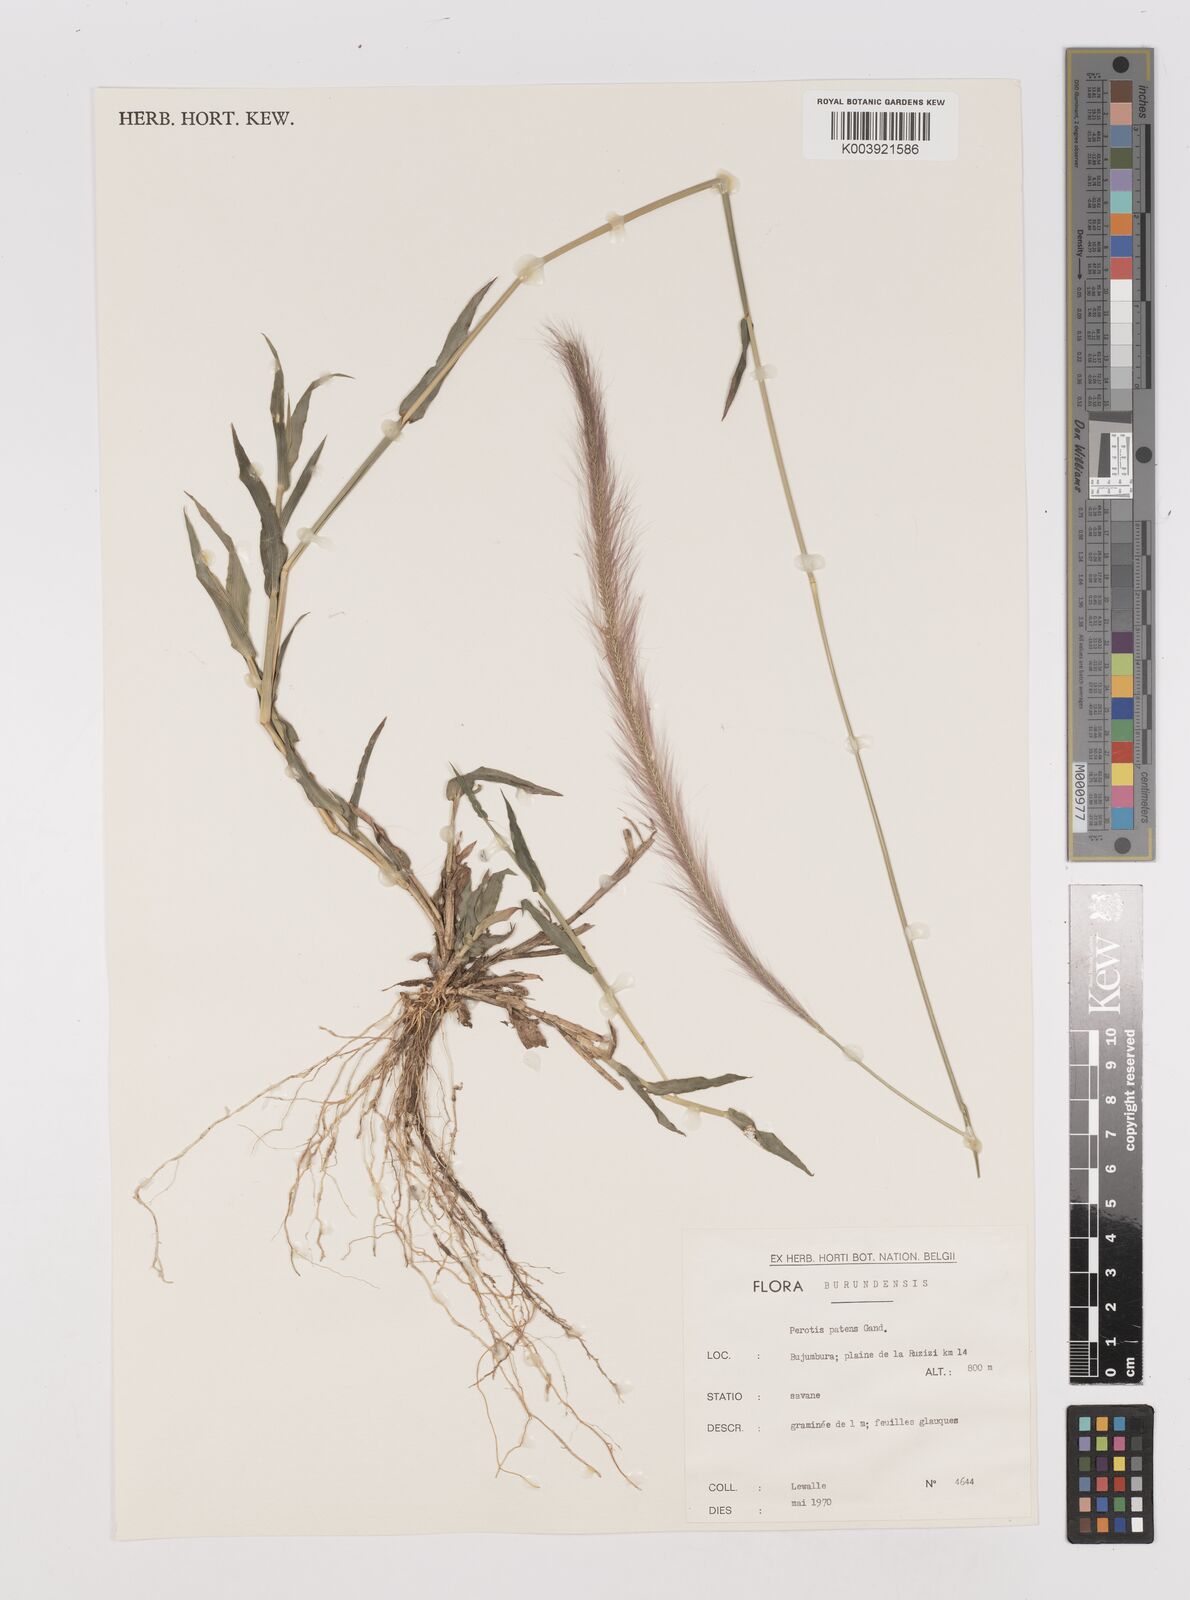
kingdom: Plantae
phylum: Tracheophyta
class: Liliopsida
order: Poales
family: Poaceae
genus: Perotis
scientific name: Perotis patens
